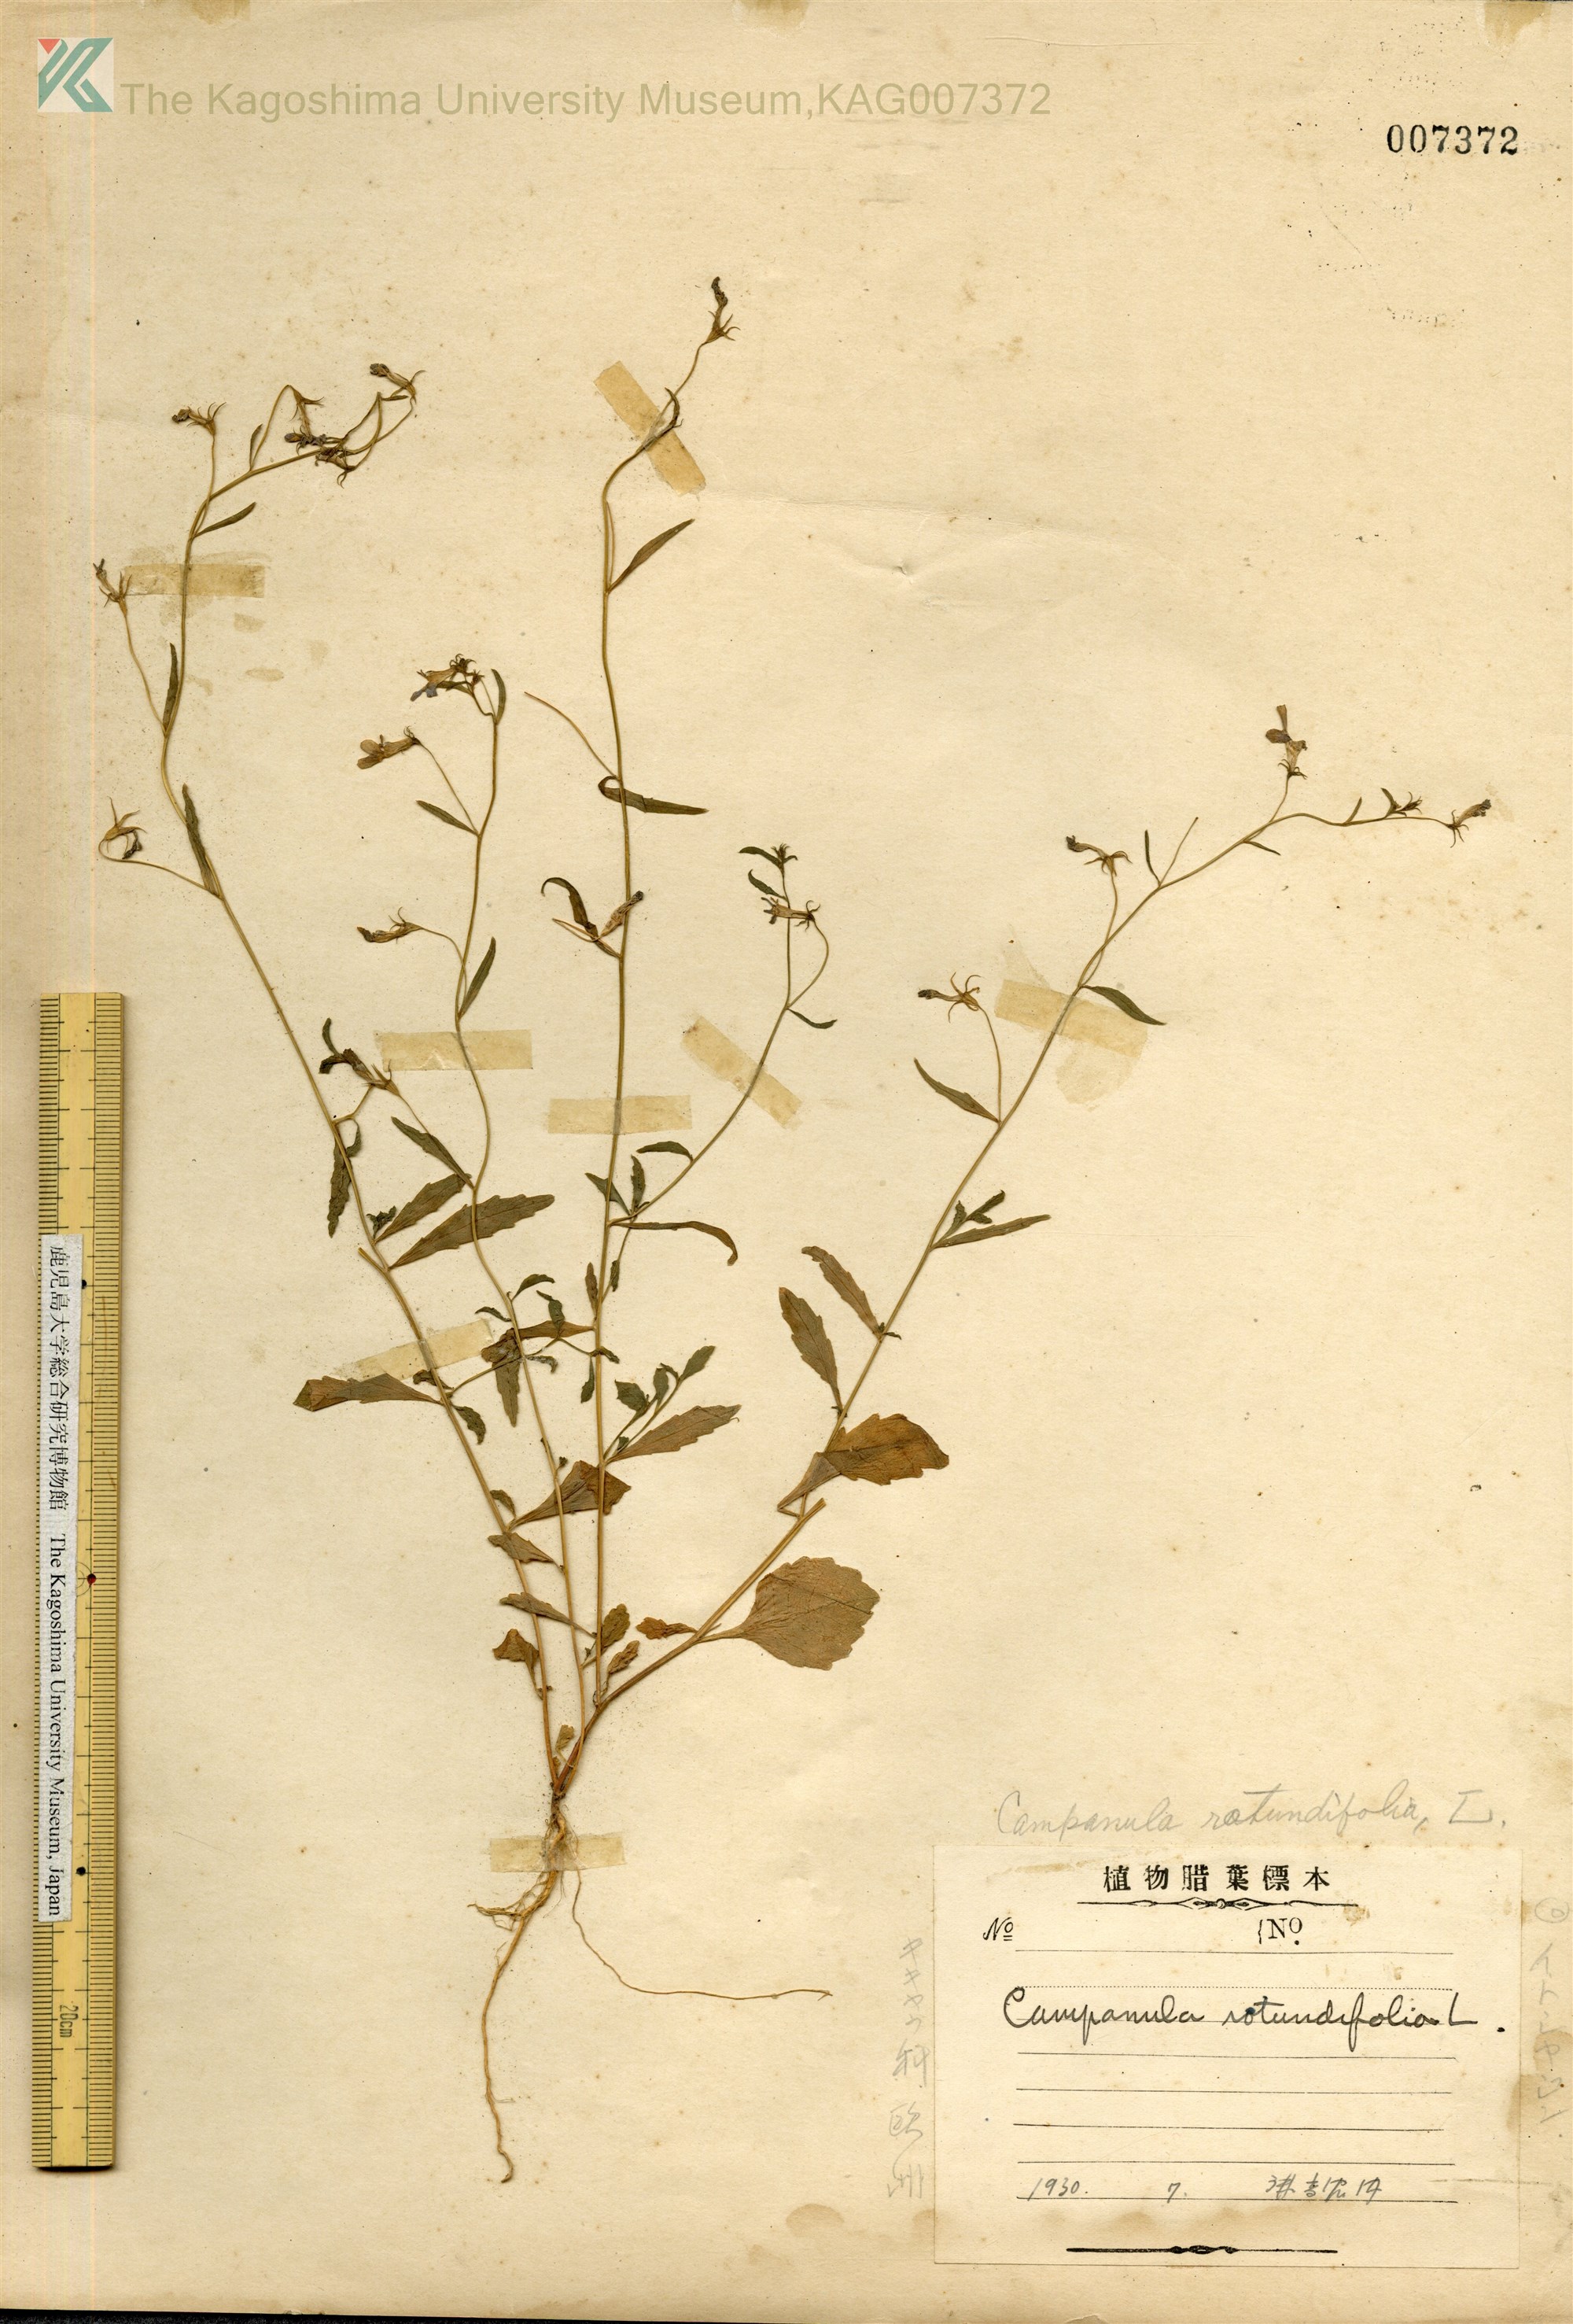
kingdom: Plantae
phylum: Tracheophyta
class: Magnoliopsida
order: Asterales
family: Campanulaceae
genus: Campanula
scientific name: Campanula rotundifolia
